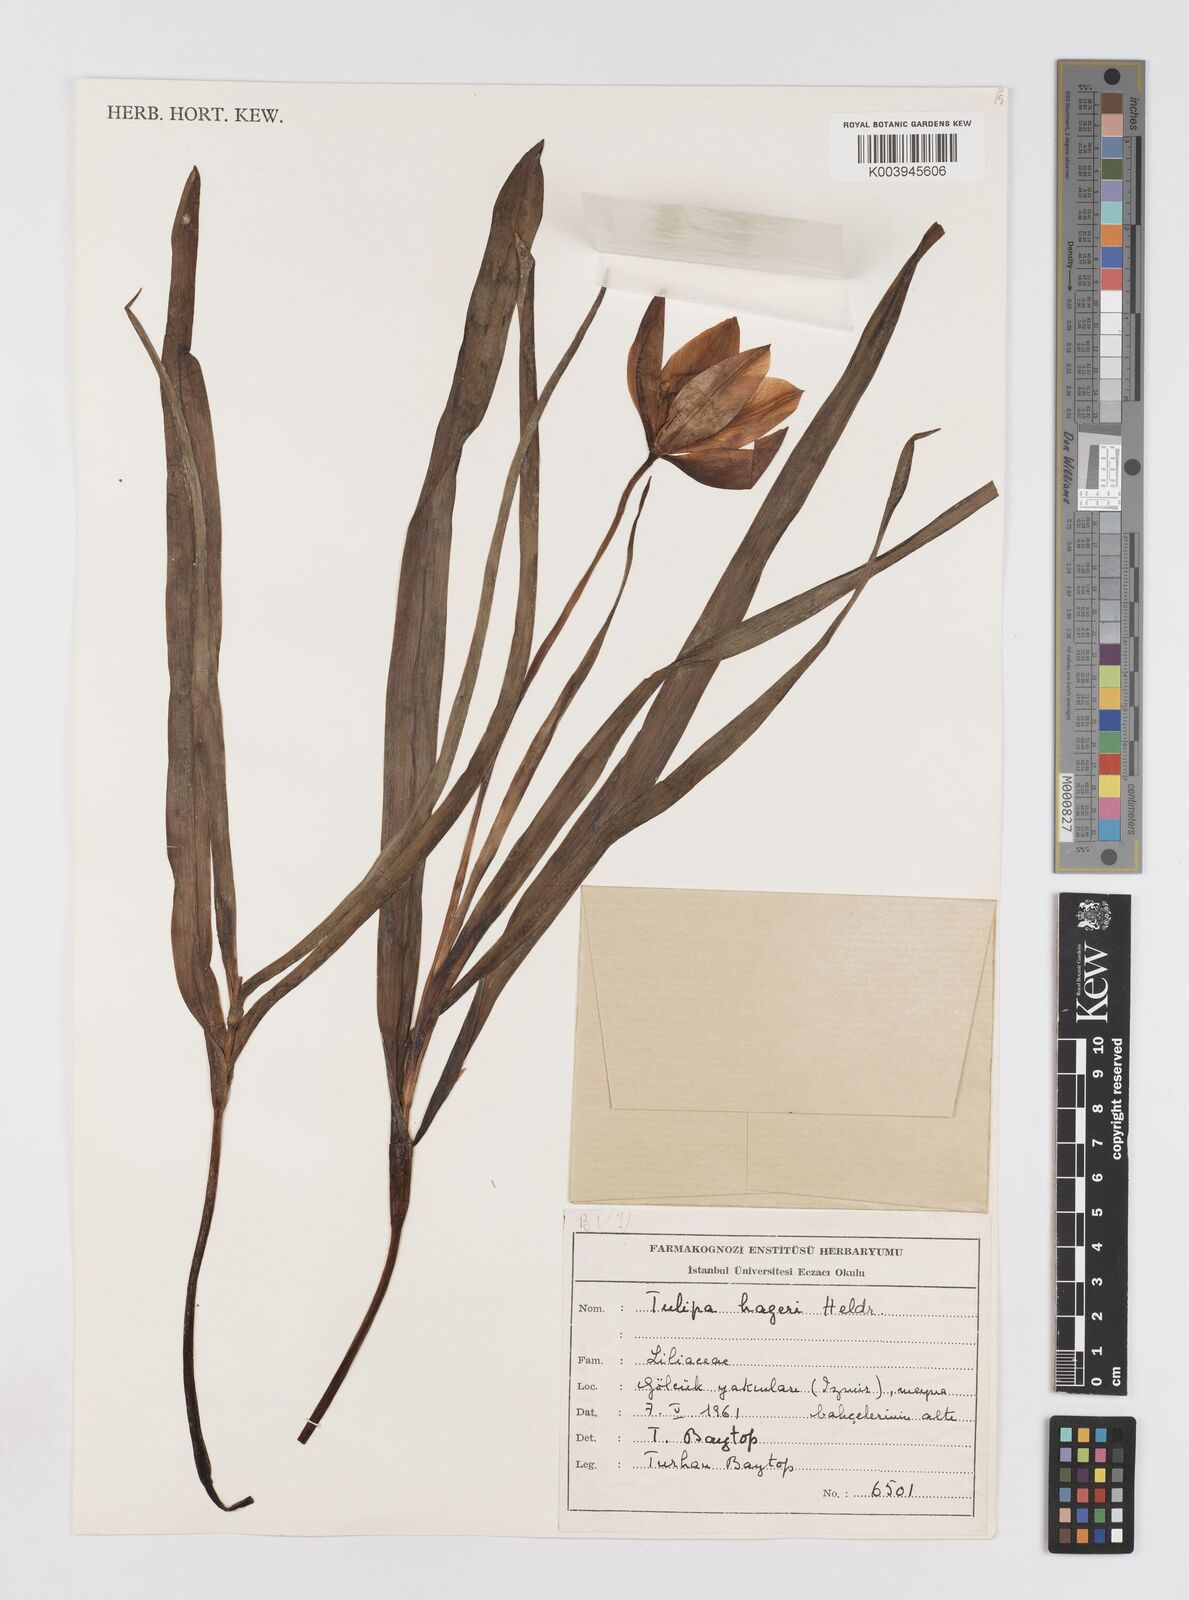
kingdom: Plantae
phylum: Tracheophyta
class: Liliopsida
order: Liliales
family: Liliaceae
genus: Tulipa
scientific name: Tulipa orphanidea
